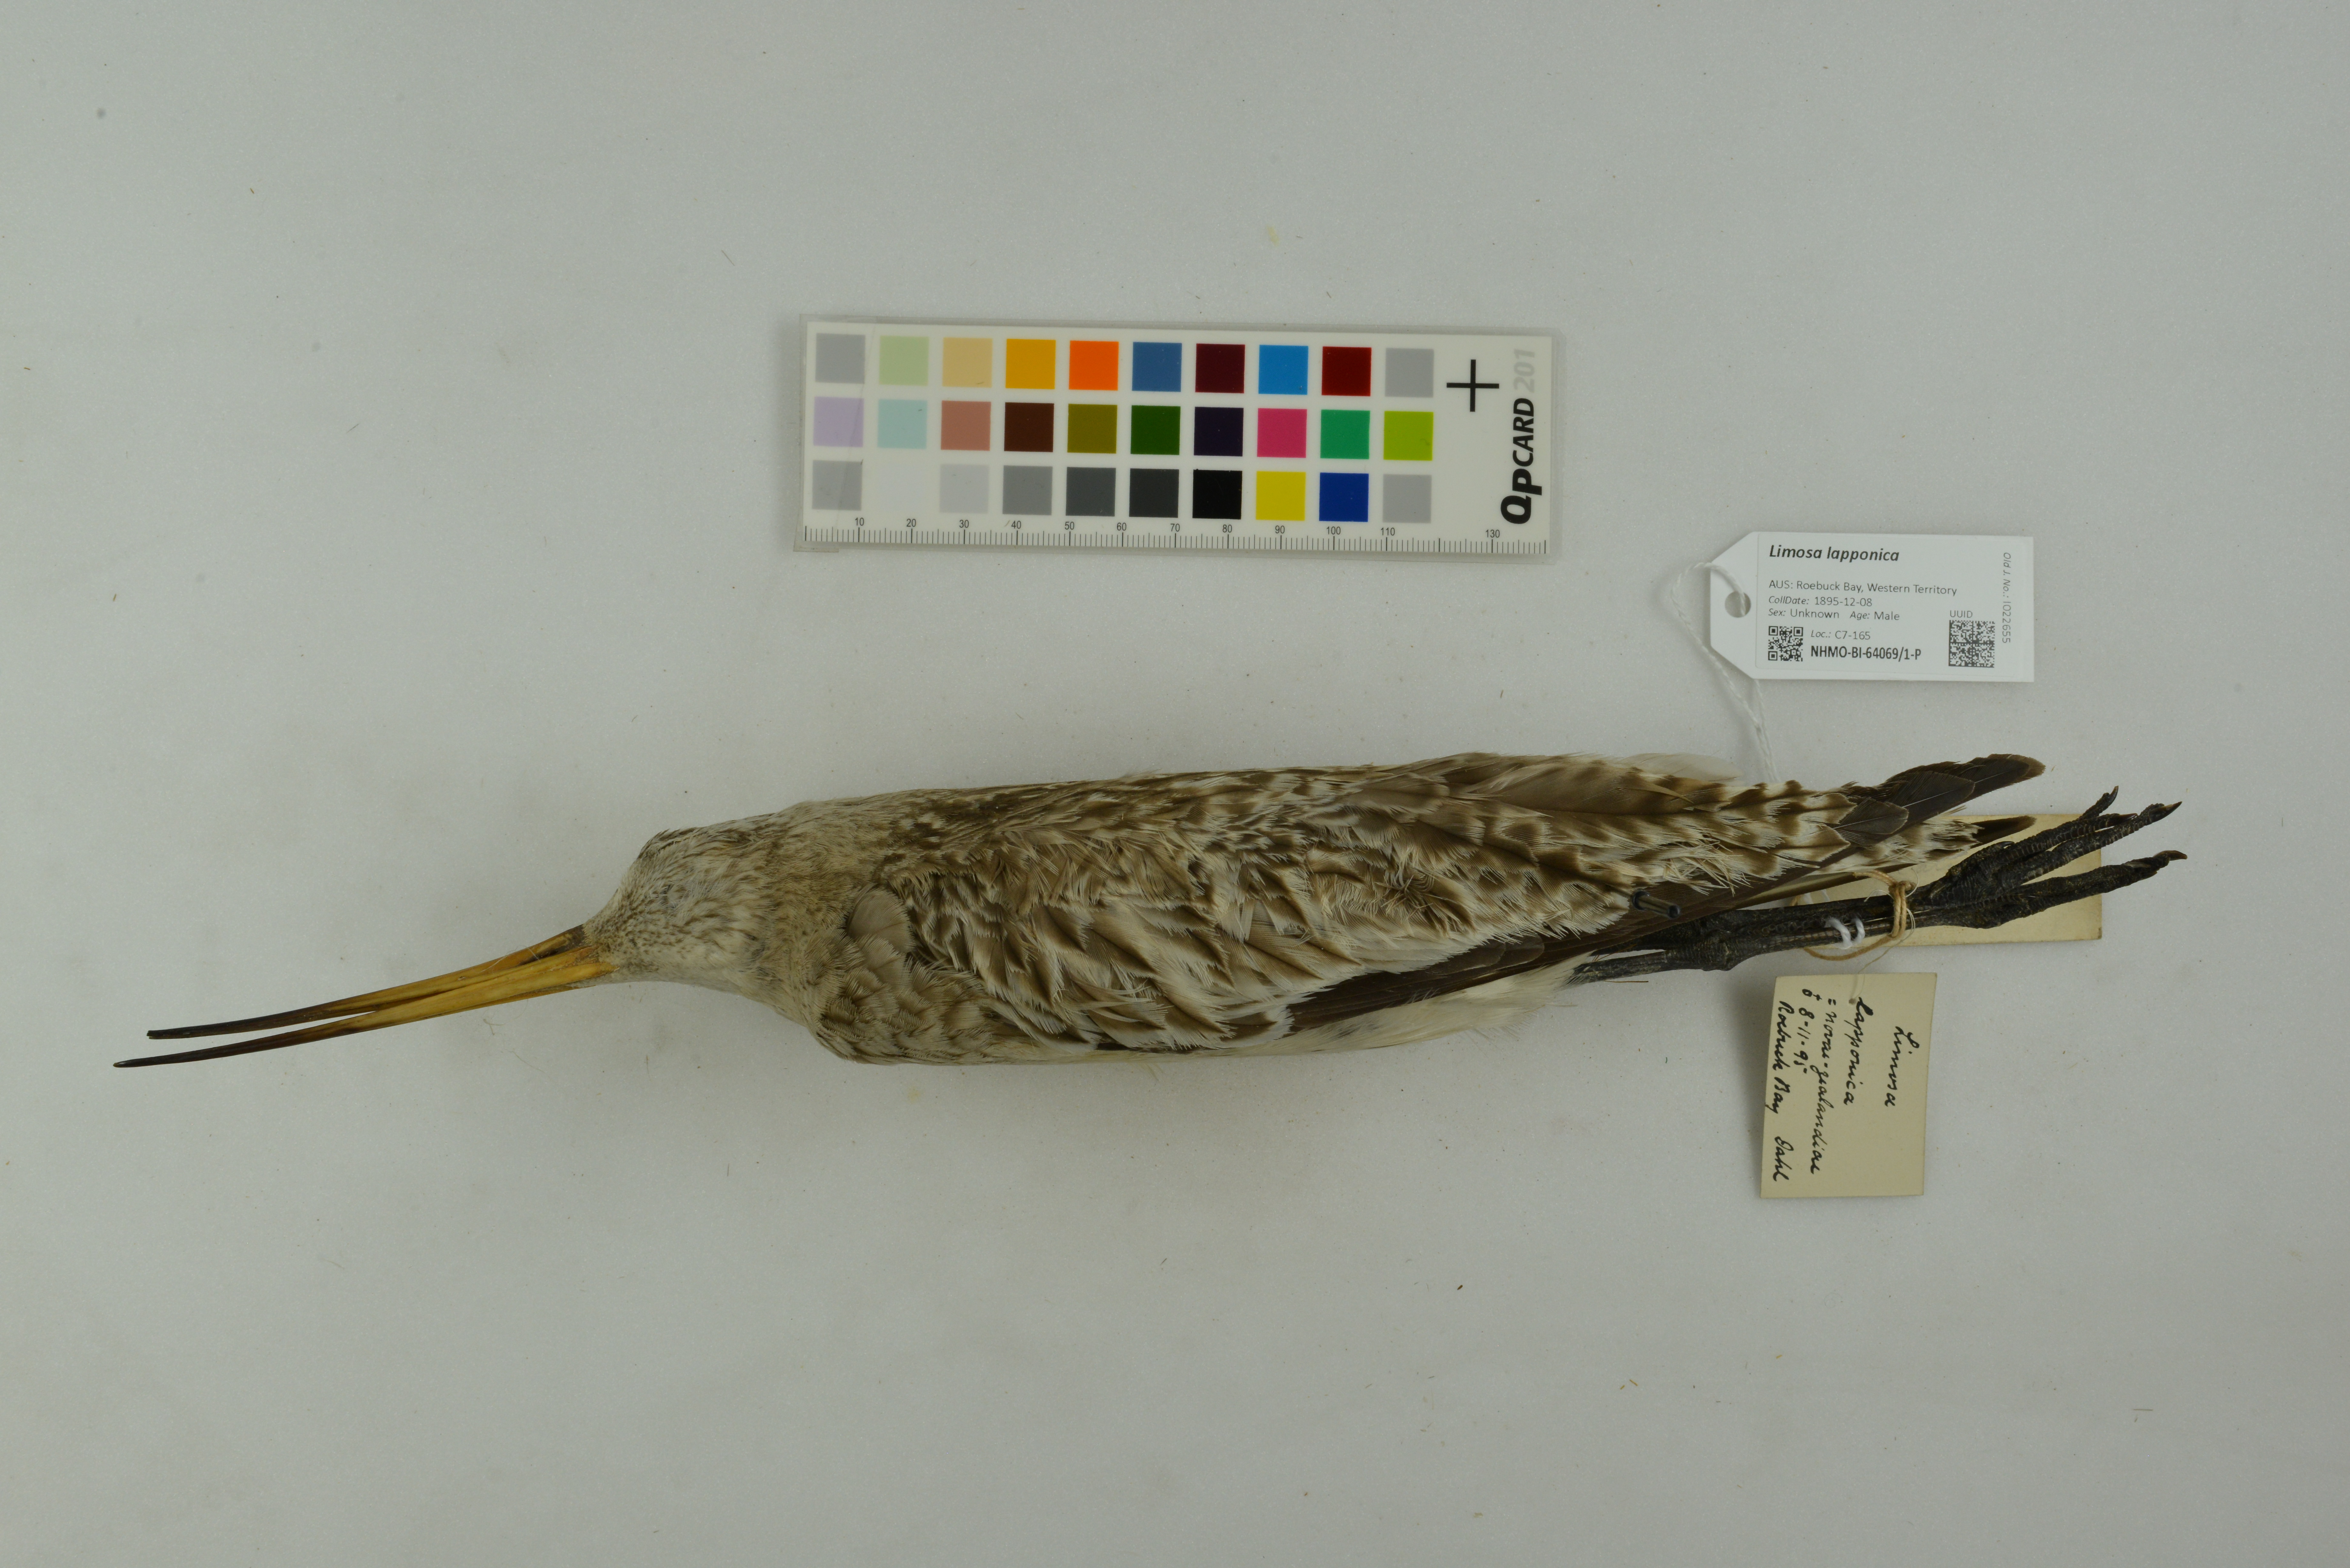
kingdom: Animalia
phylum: Chordata
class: Aves
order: Charadriiformes
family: Scolopacidae
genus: Limosa
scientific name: Limosa lapponica
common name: Bar-tailed godwit
